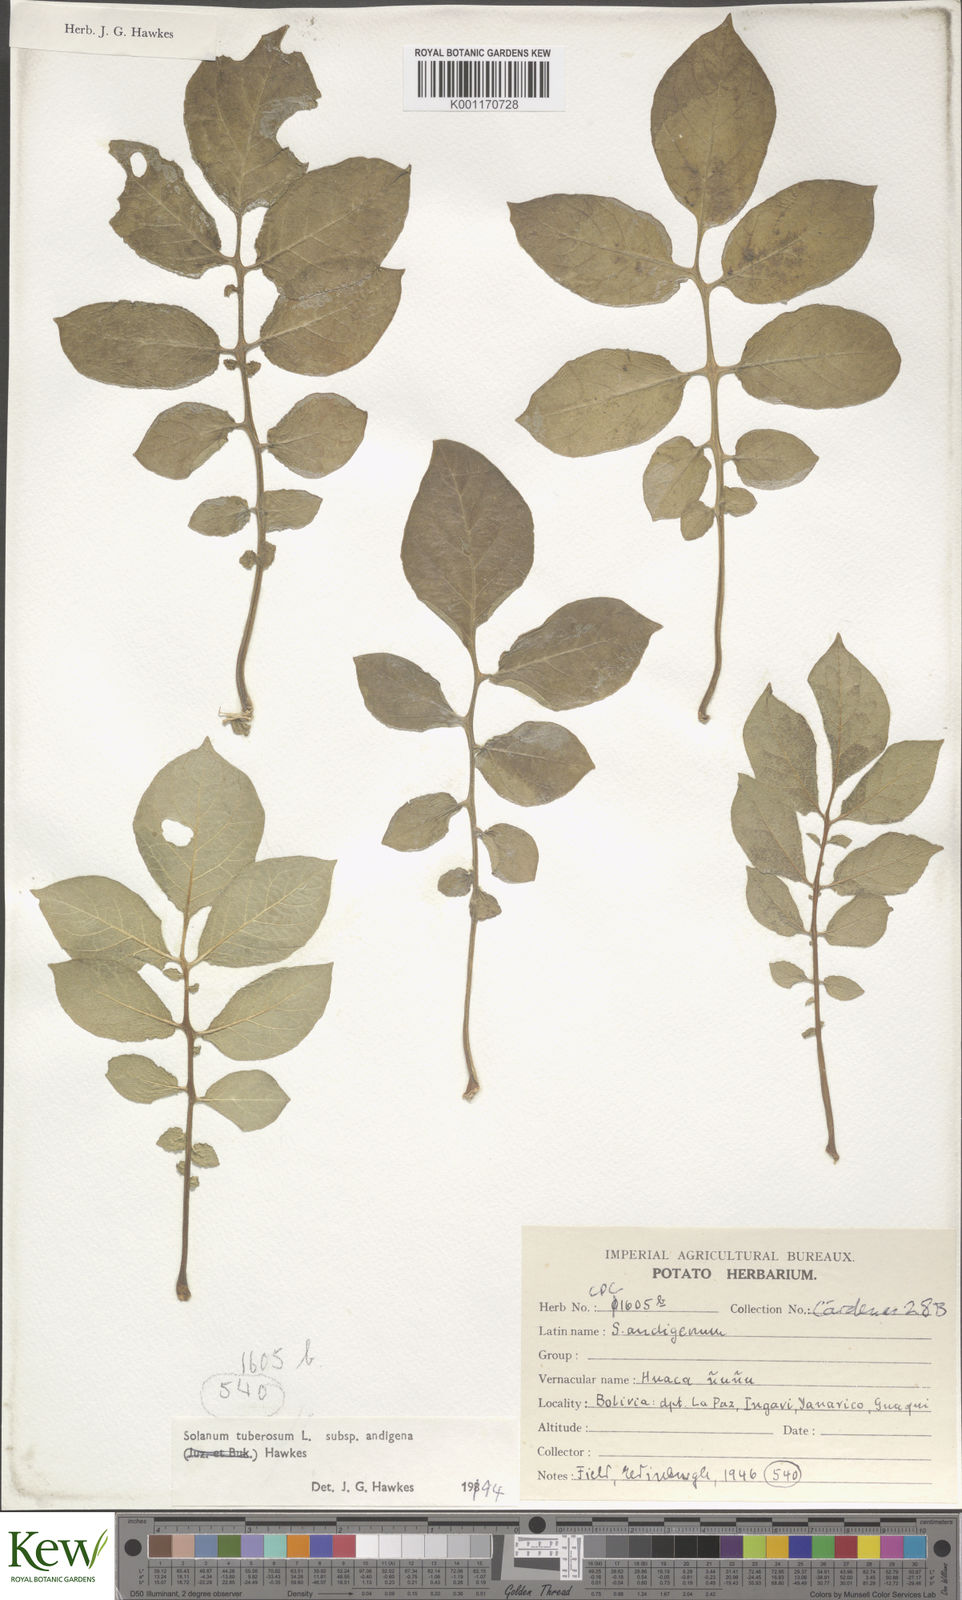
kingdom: Plantae
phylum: Tracheophyta
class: Magnoliopsida
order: Solanales
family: Solanaceae
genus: Solanum
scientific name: Solanum tuberosum
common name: Potato
